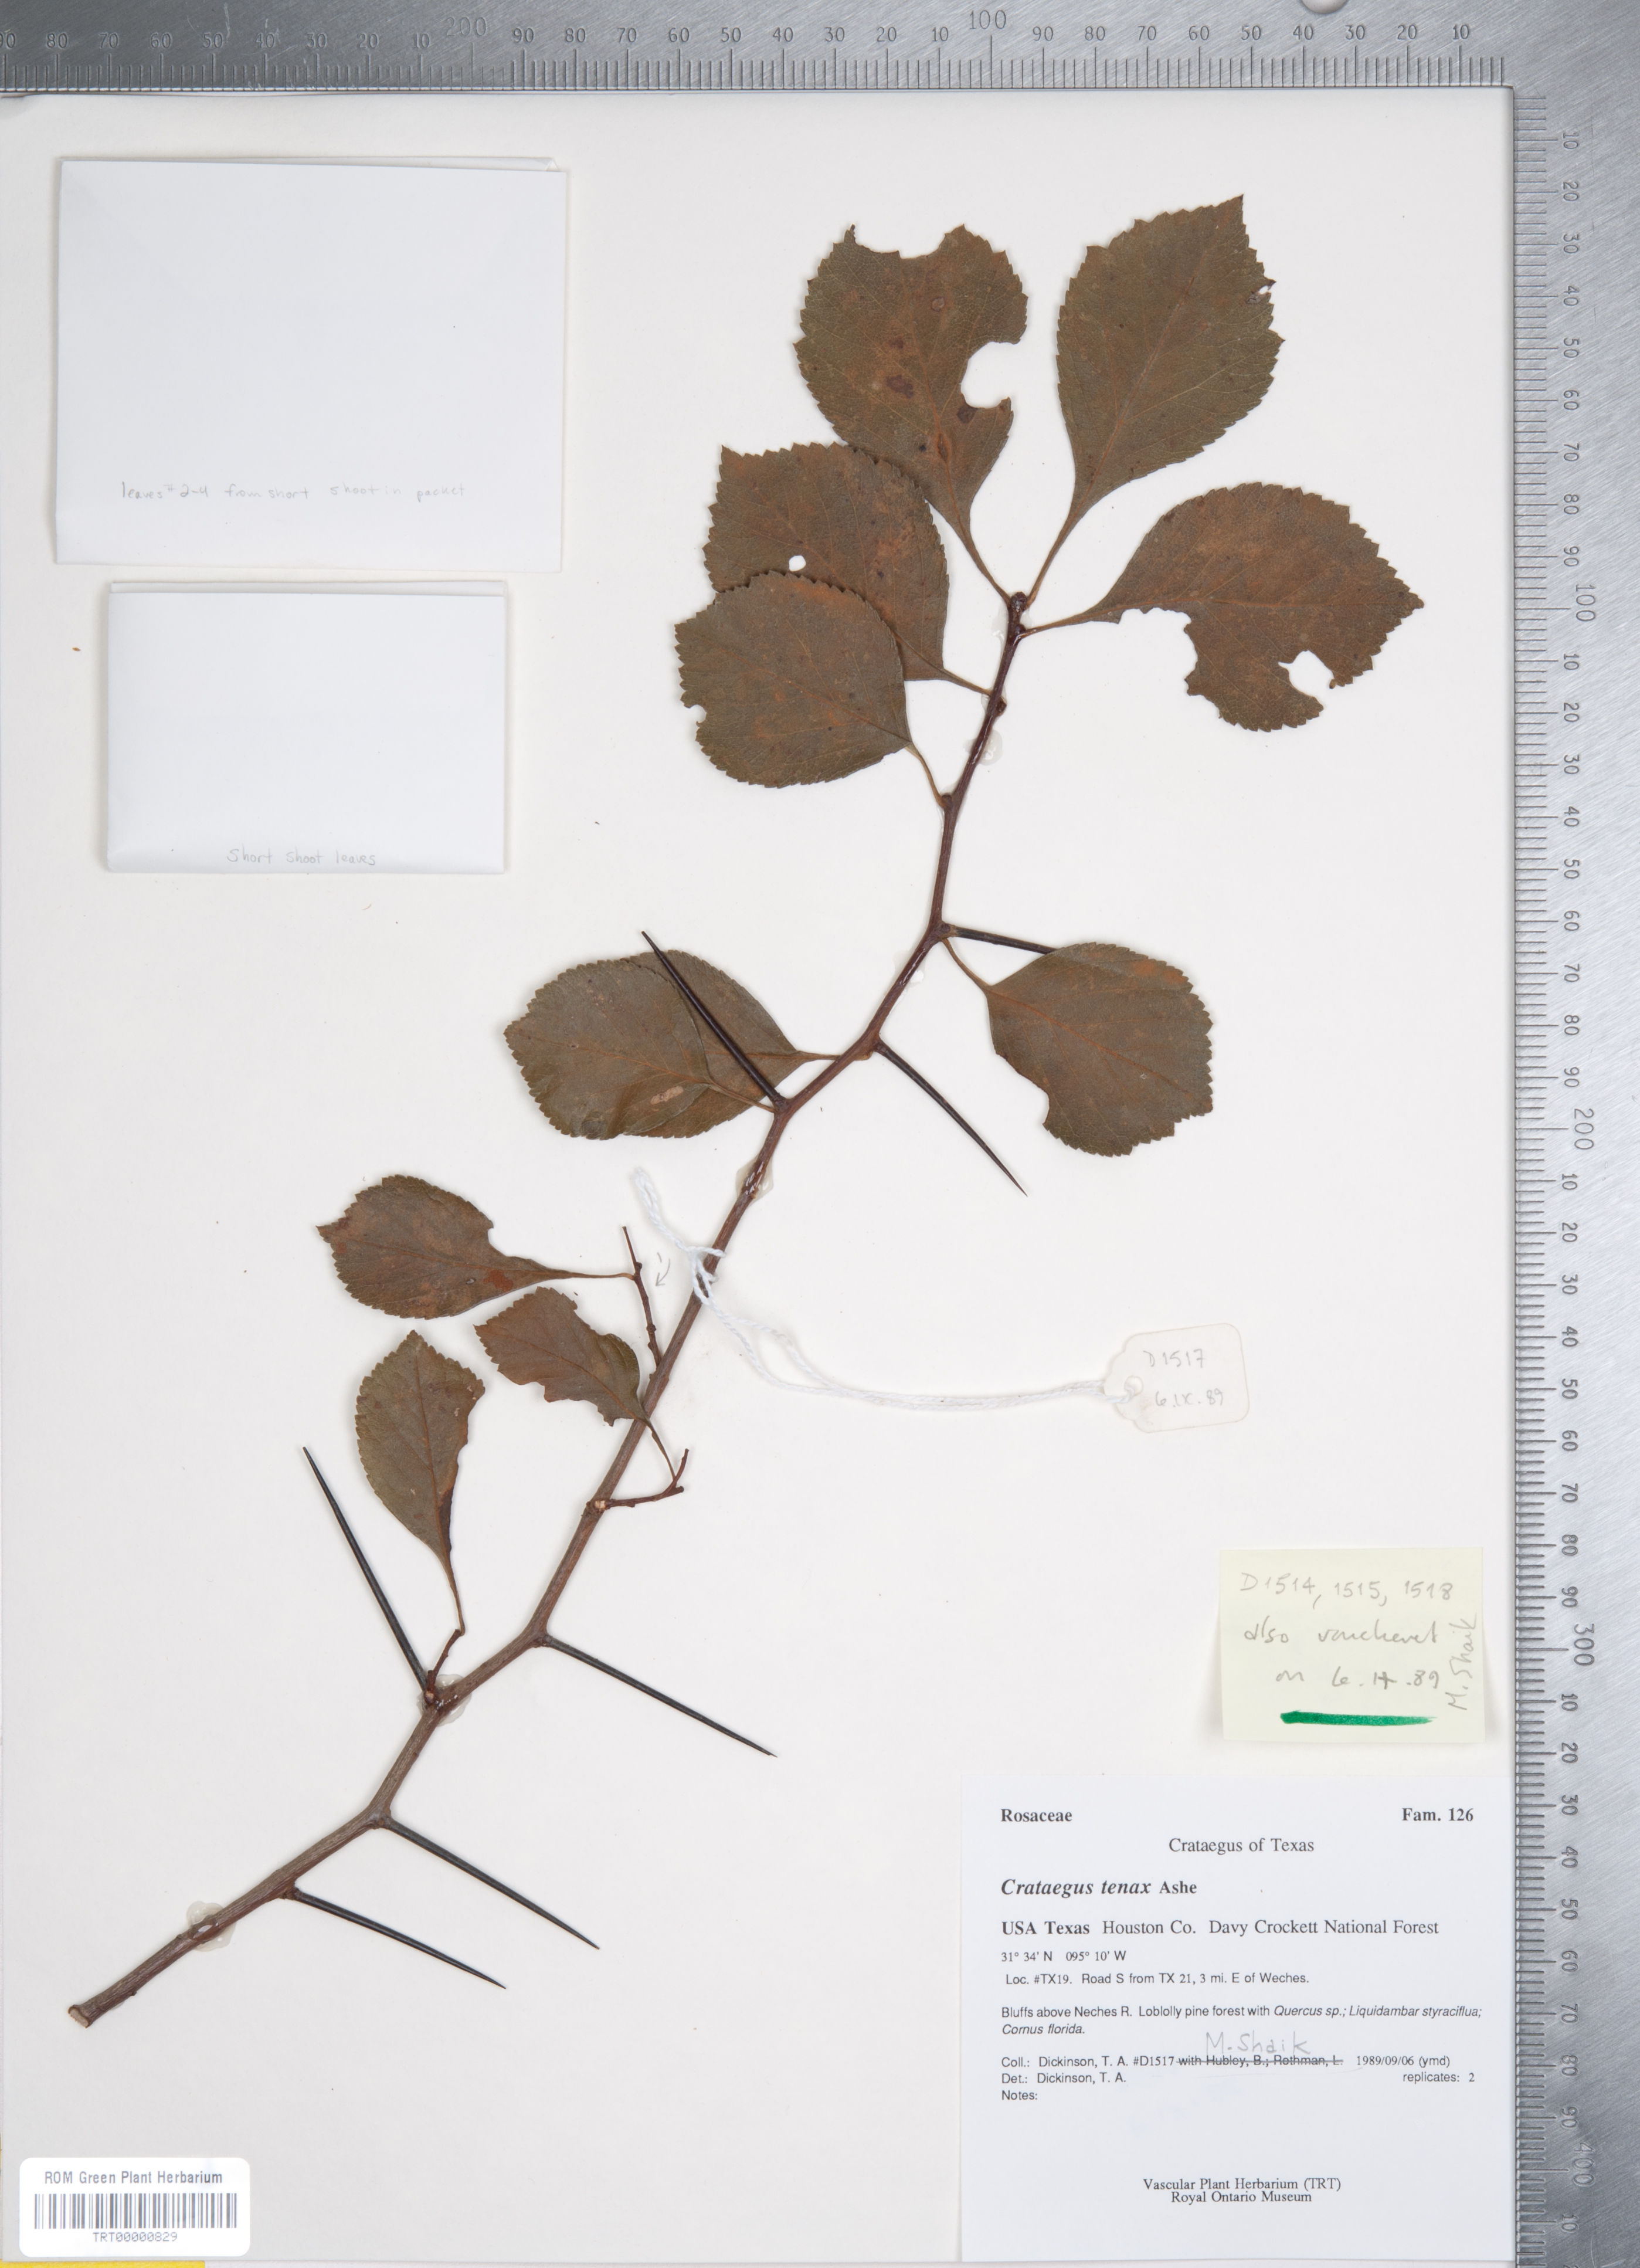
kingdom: Plantae
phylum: Tracheophyta
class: Magnoliopsida
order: Rosales
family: Rosaceae
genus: Crataegus
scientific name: Crataegus crus-galli
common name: Cockspurthorn
